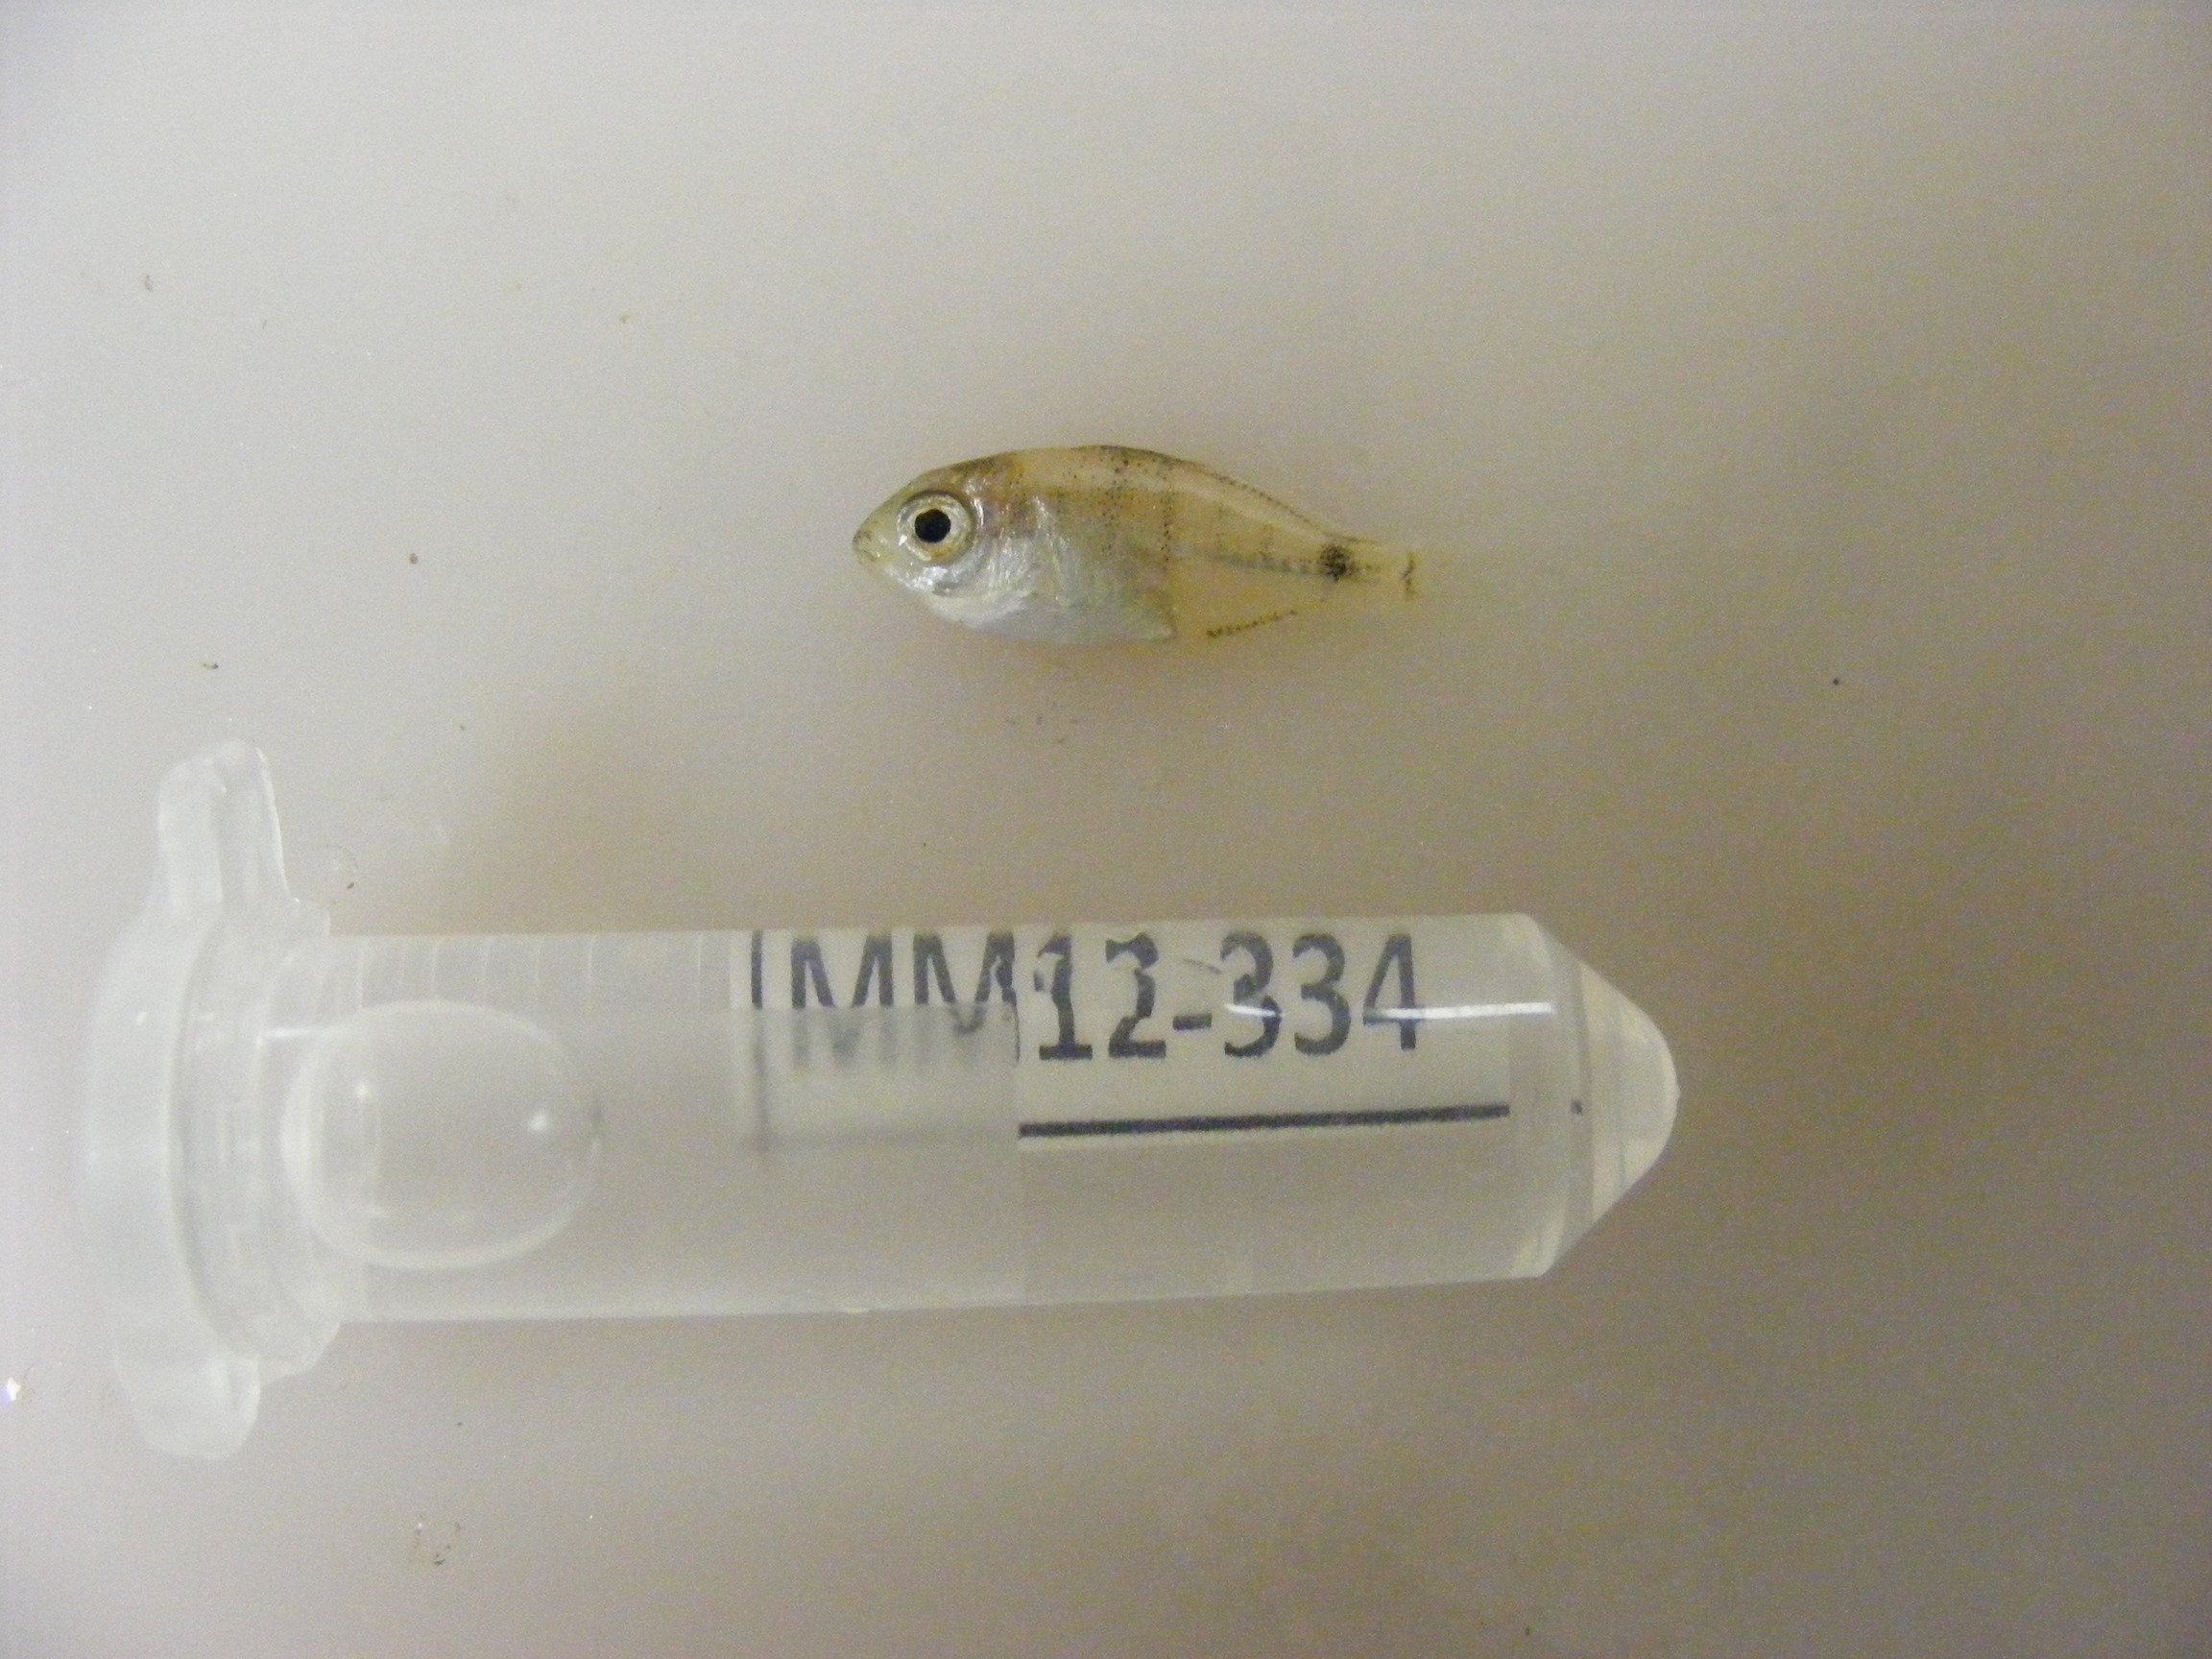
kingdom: Animalia
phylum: Chordata
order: Perciformes
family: Sparidae
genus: Diplodus
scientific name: Diplodus capensis
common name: Blacktail
